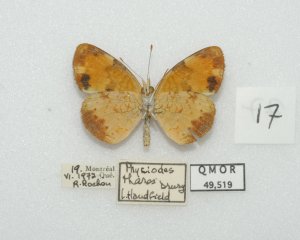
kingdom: Animalia
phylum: Arthropoda
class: Insecta
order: Lepidoptera
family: Nymphalidae
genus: Phyciodes
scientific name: Phyciodes tharos
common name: Northern Crescent
